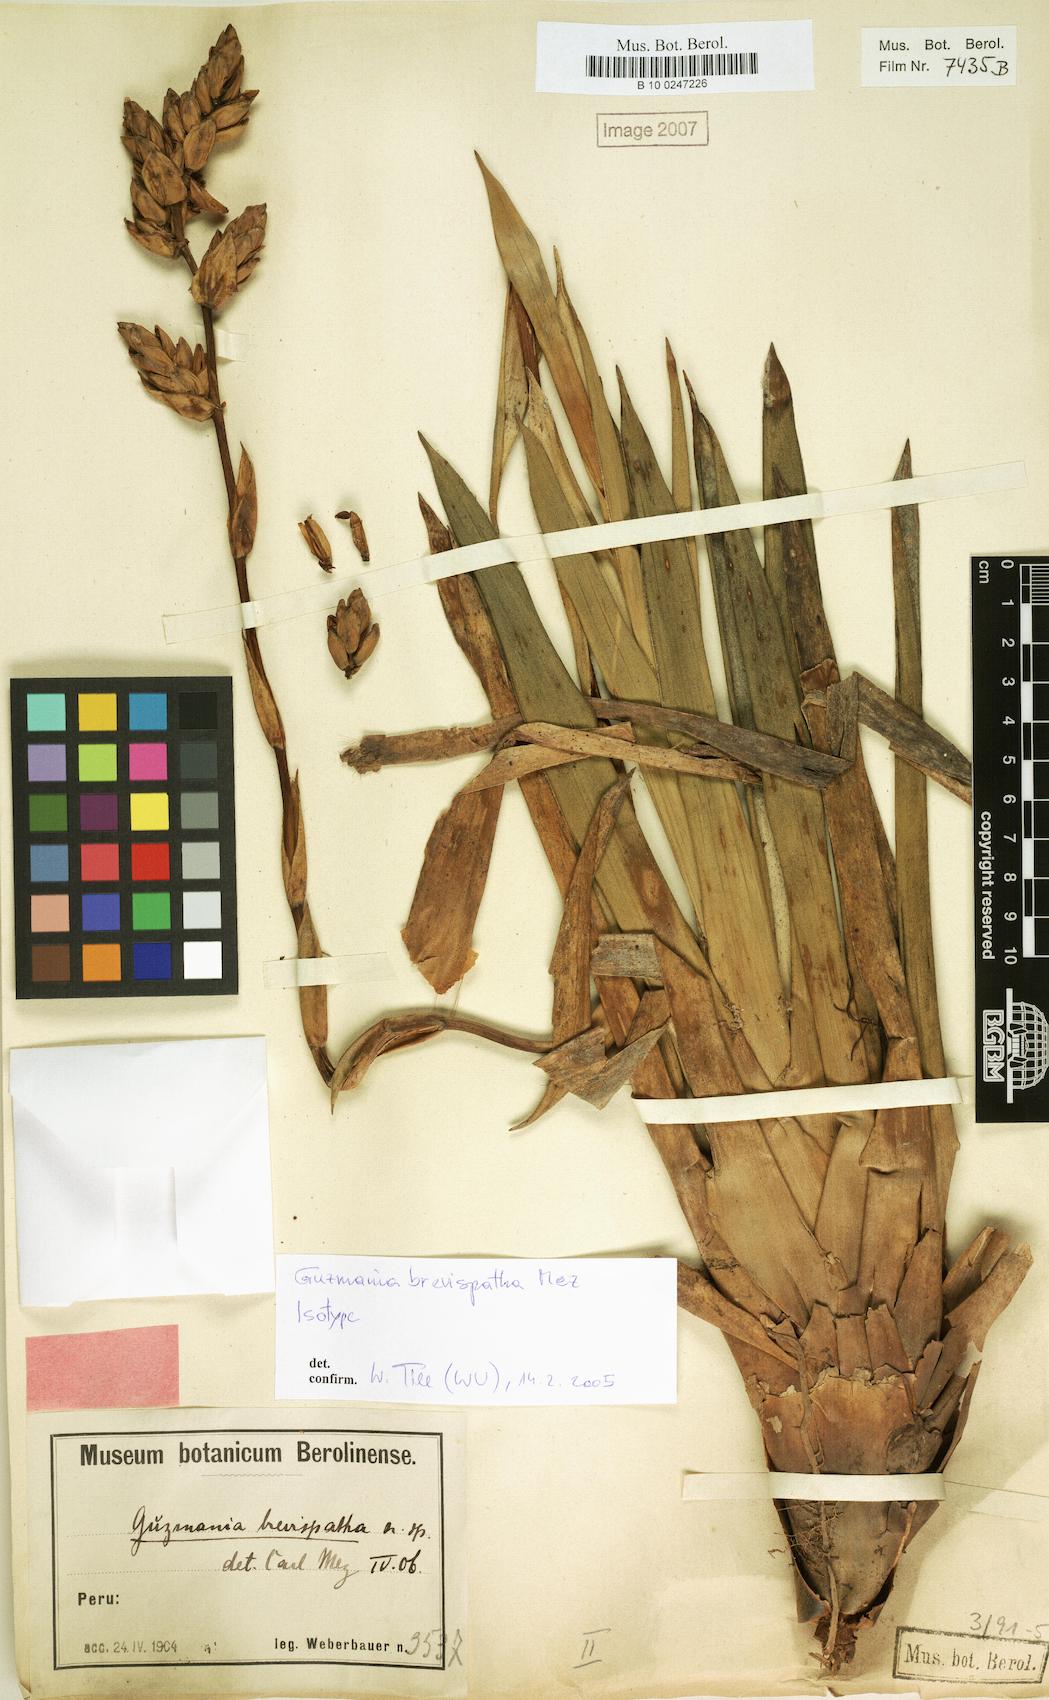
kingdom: Plantae
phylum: Tracheophyta
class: Liliopsida
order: Poales
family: Bromeliaceae
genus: Guzmania
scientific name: Guzmania brevispatha
